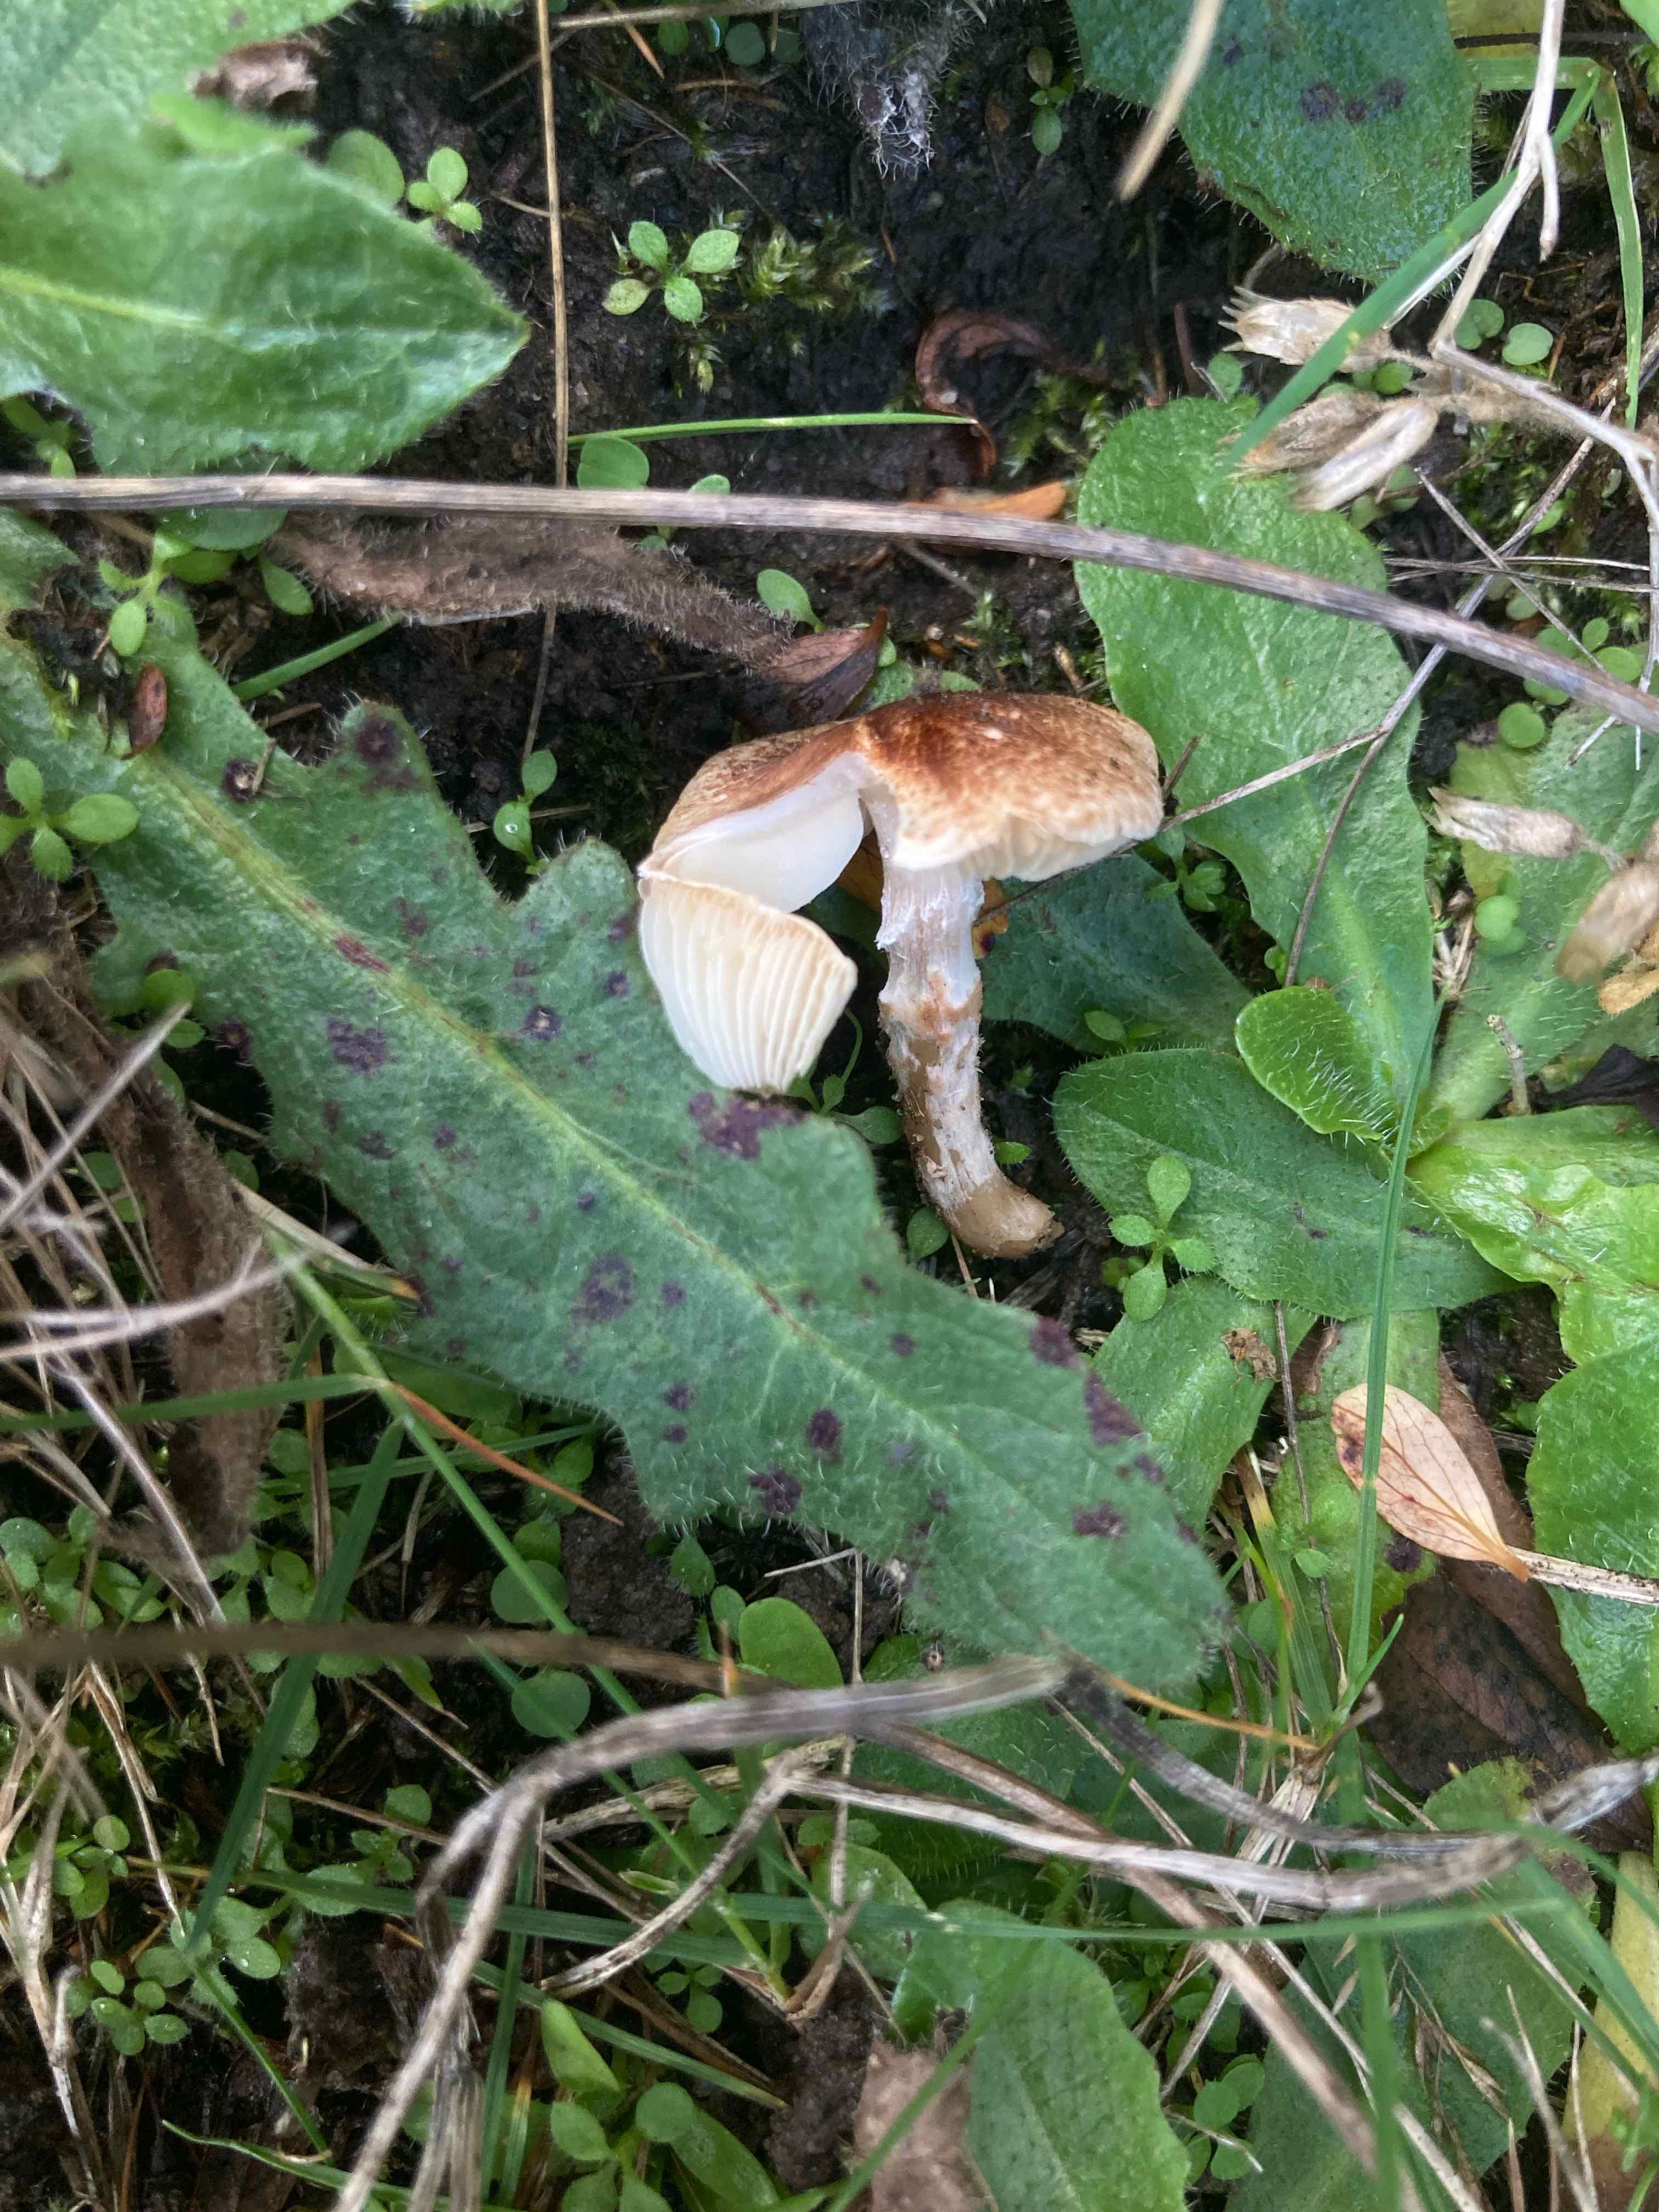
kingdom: Fungi
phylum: Basidiomycota
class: Agaricomycetes
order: Agaricales
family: Agaricaceae
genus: Lepiota
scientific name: Lepiota subincarnata
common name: kødfarvet parasolhat
